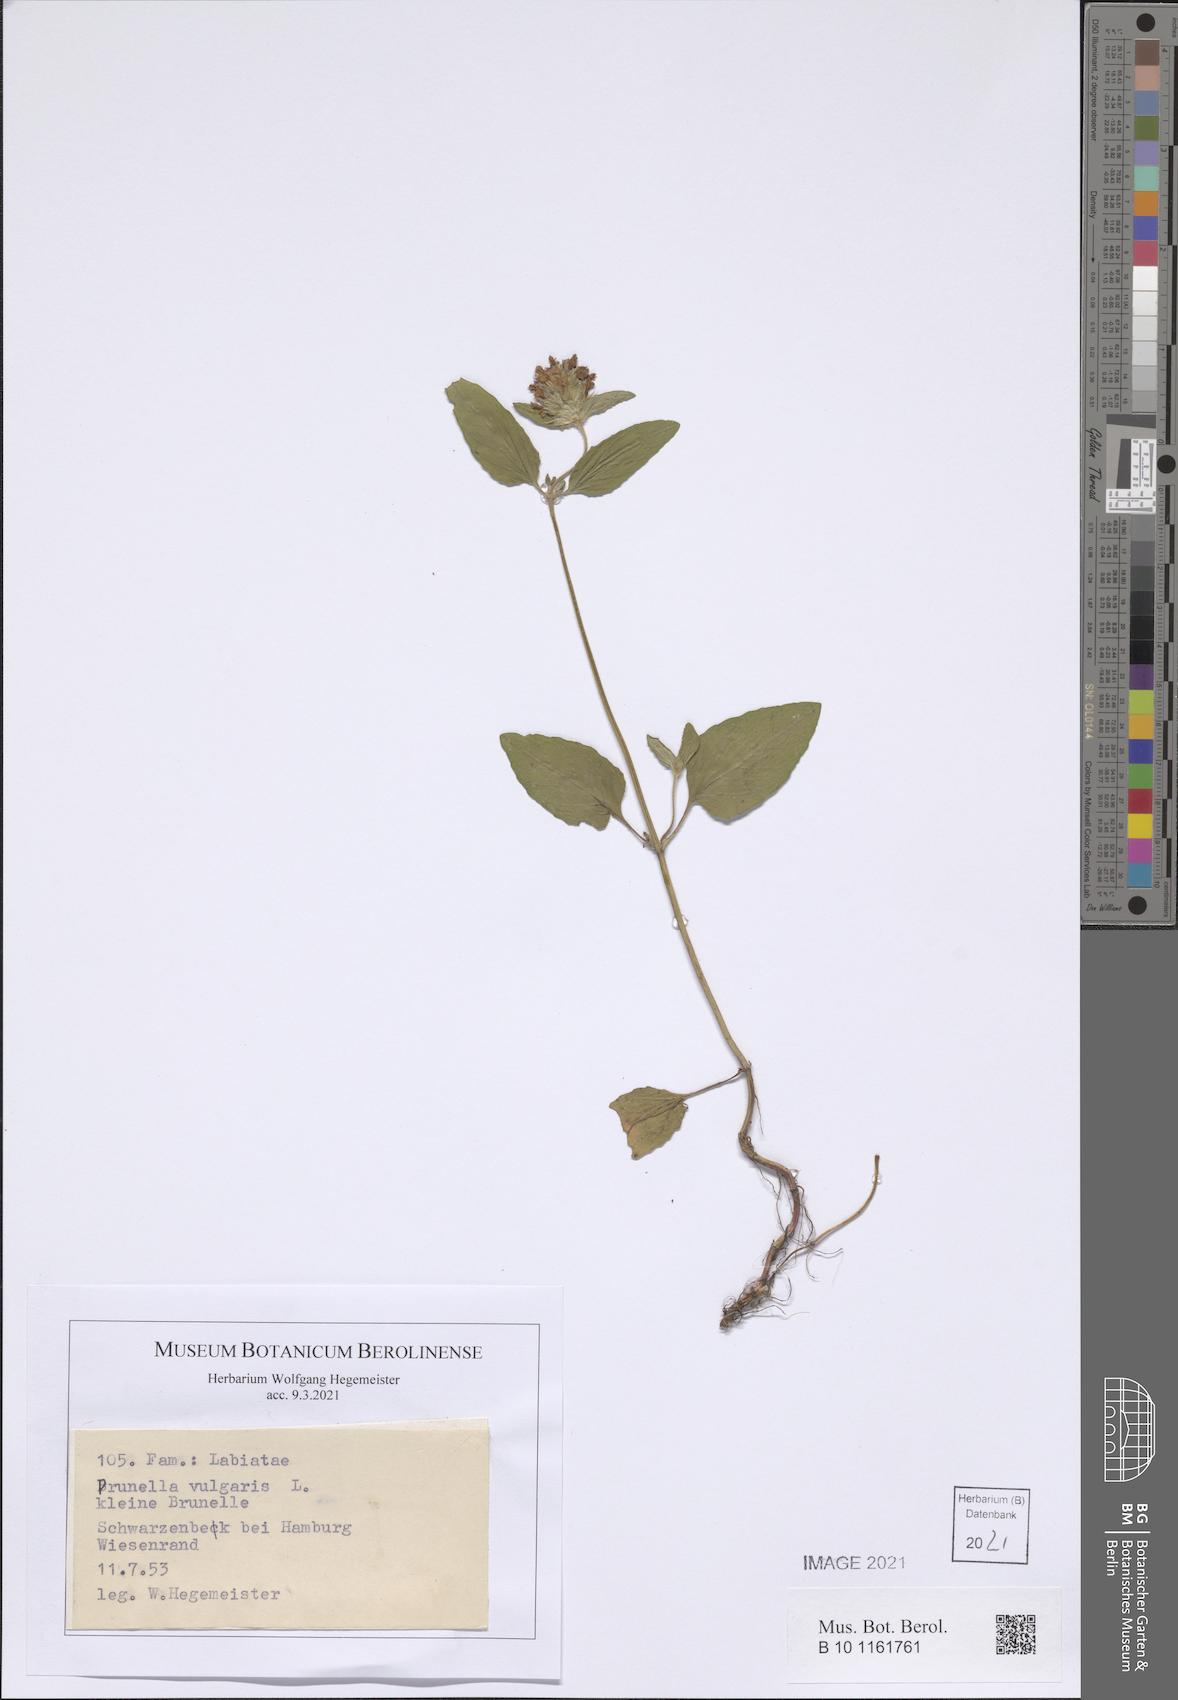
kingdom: Plantae
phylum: Tracheophyta
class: Magnoliopsida
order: Lamiales
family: Lamiaceae
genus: Prunella
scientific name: Prunella vulgaris
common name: Heal-all
